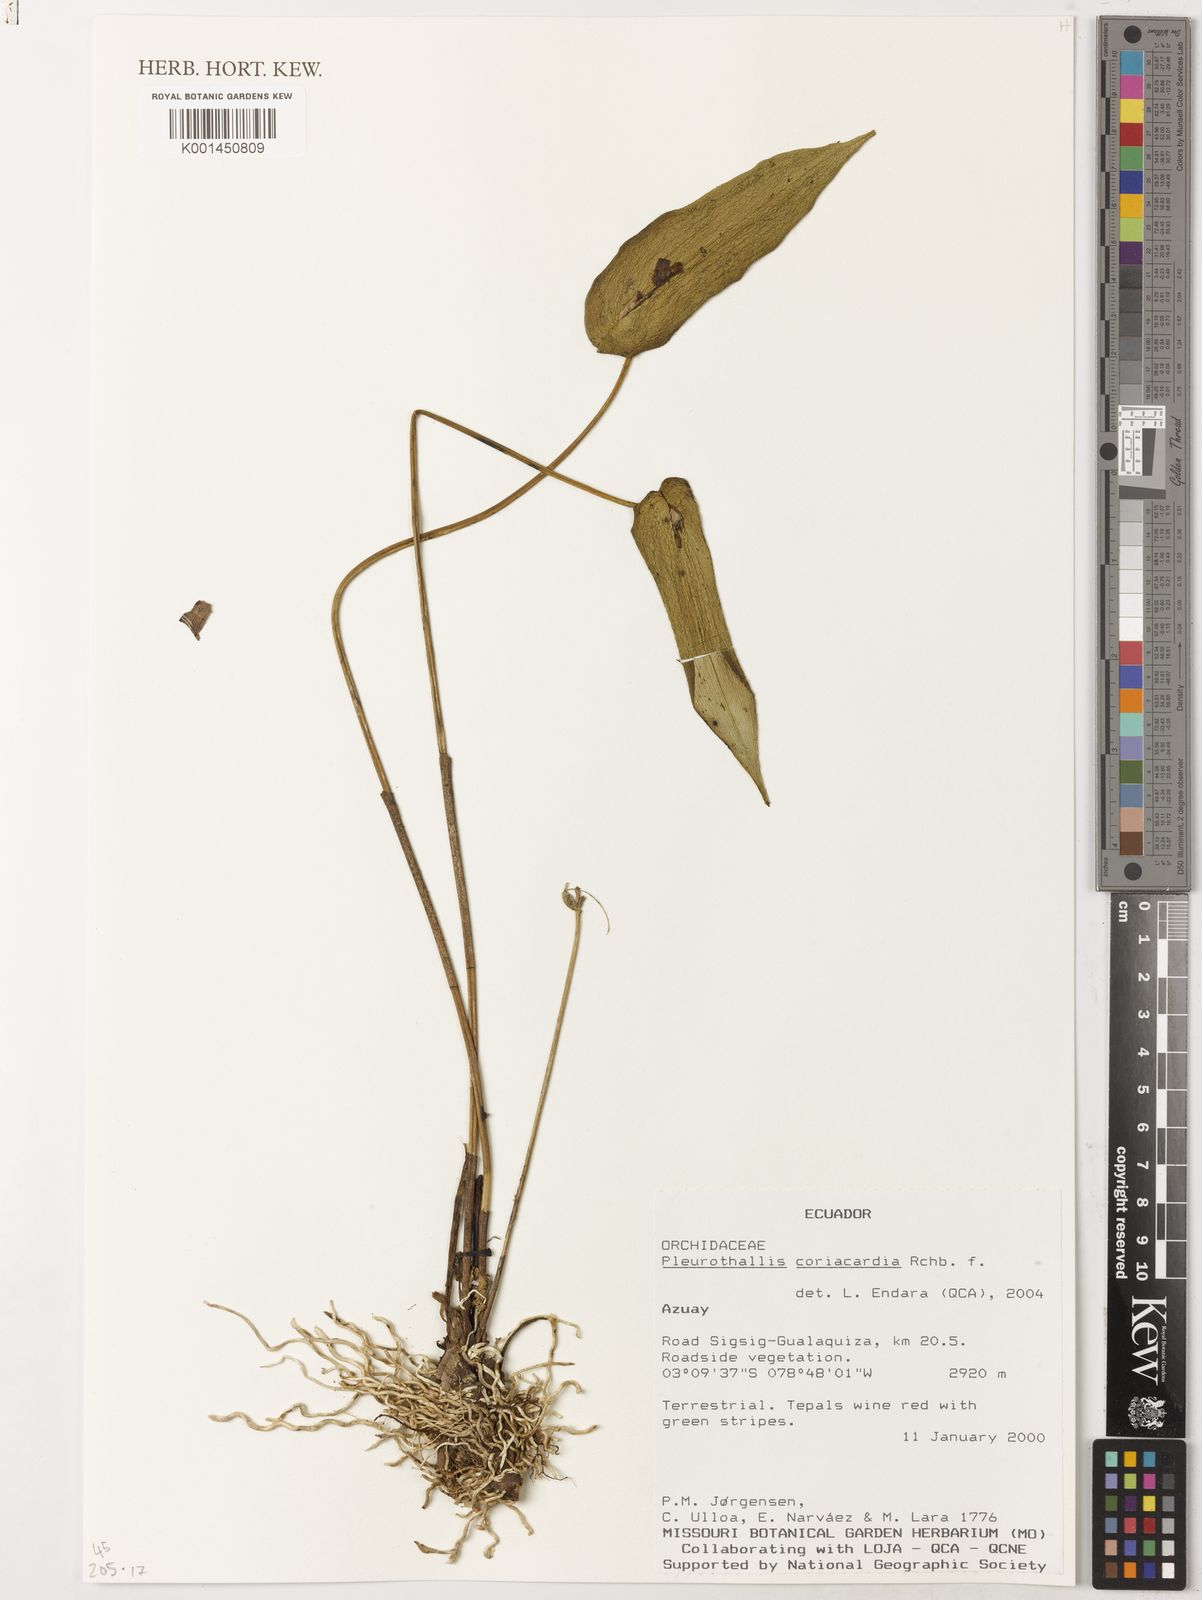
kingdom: Plantae
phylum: Tracheophyta
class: Liliopsida
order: Asparagales
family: Orchidaceae
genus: Pleurothallis
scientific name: Pleurothallis coriacardia
